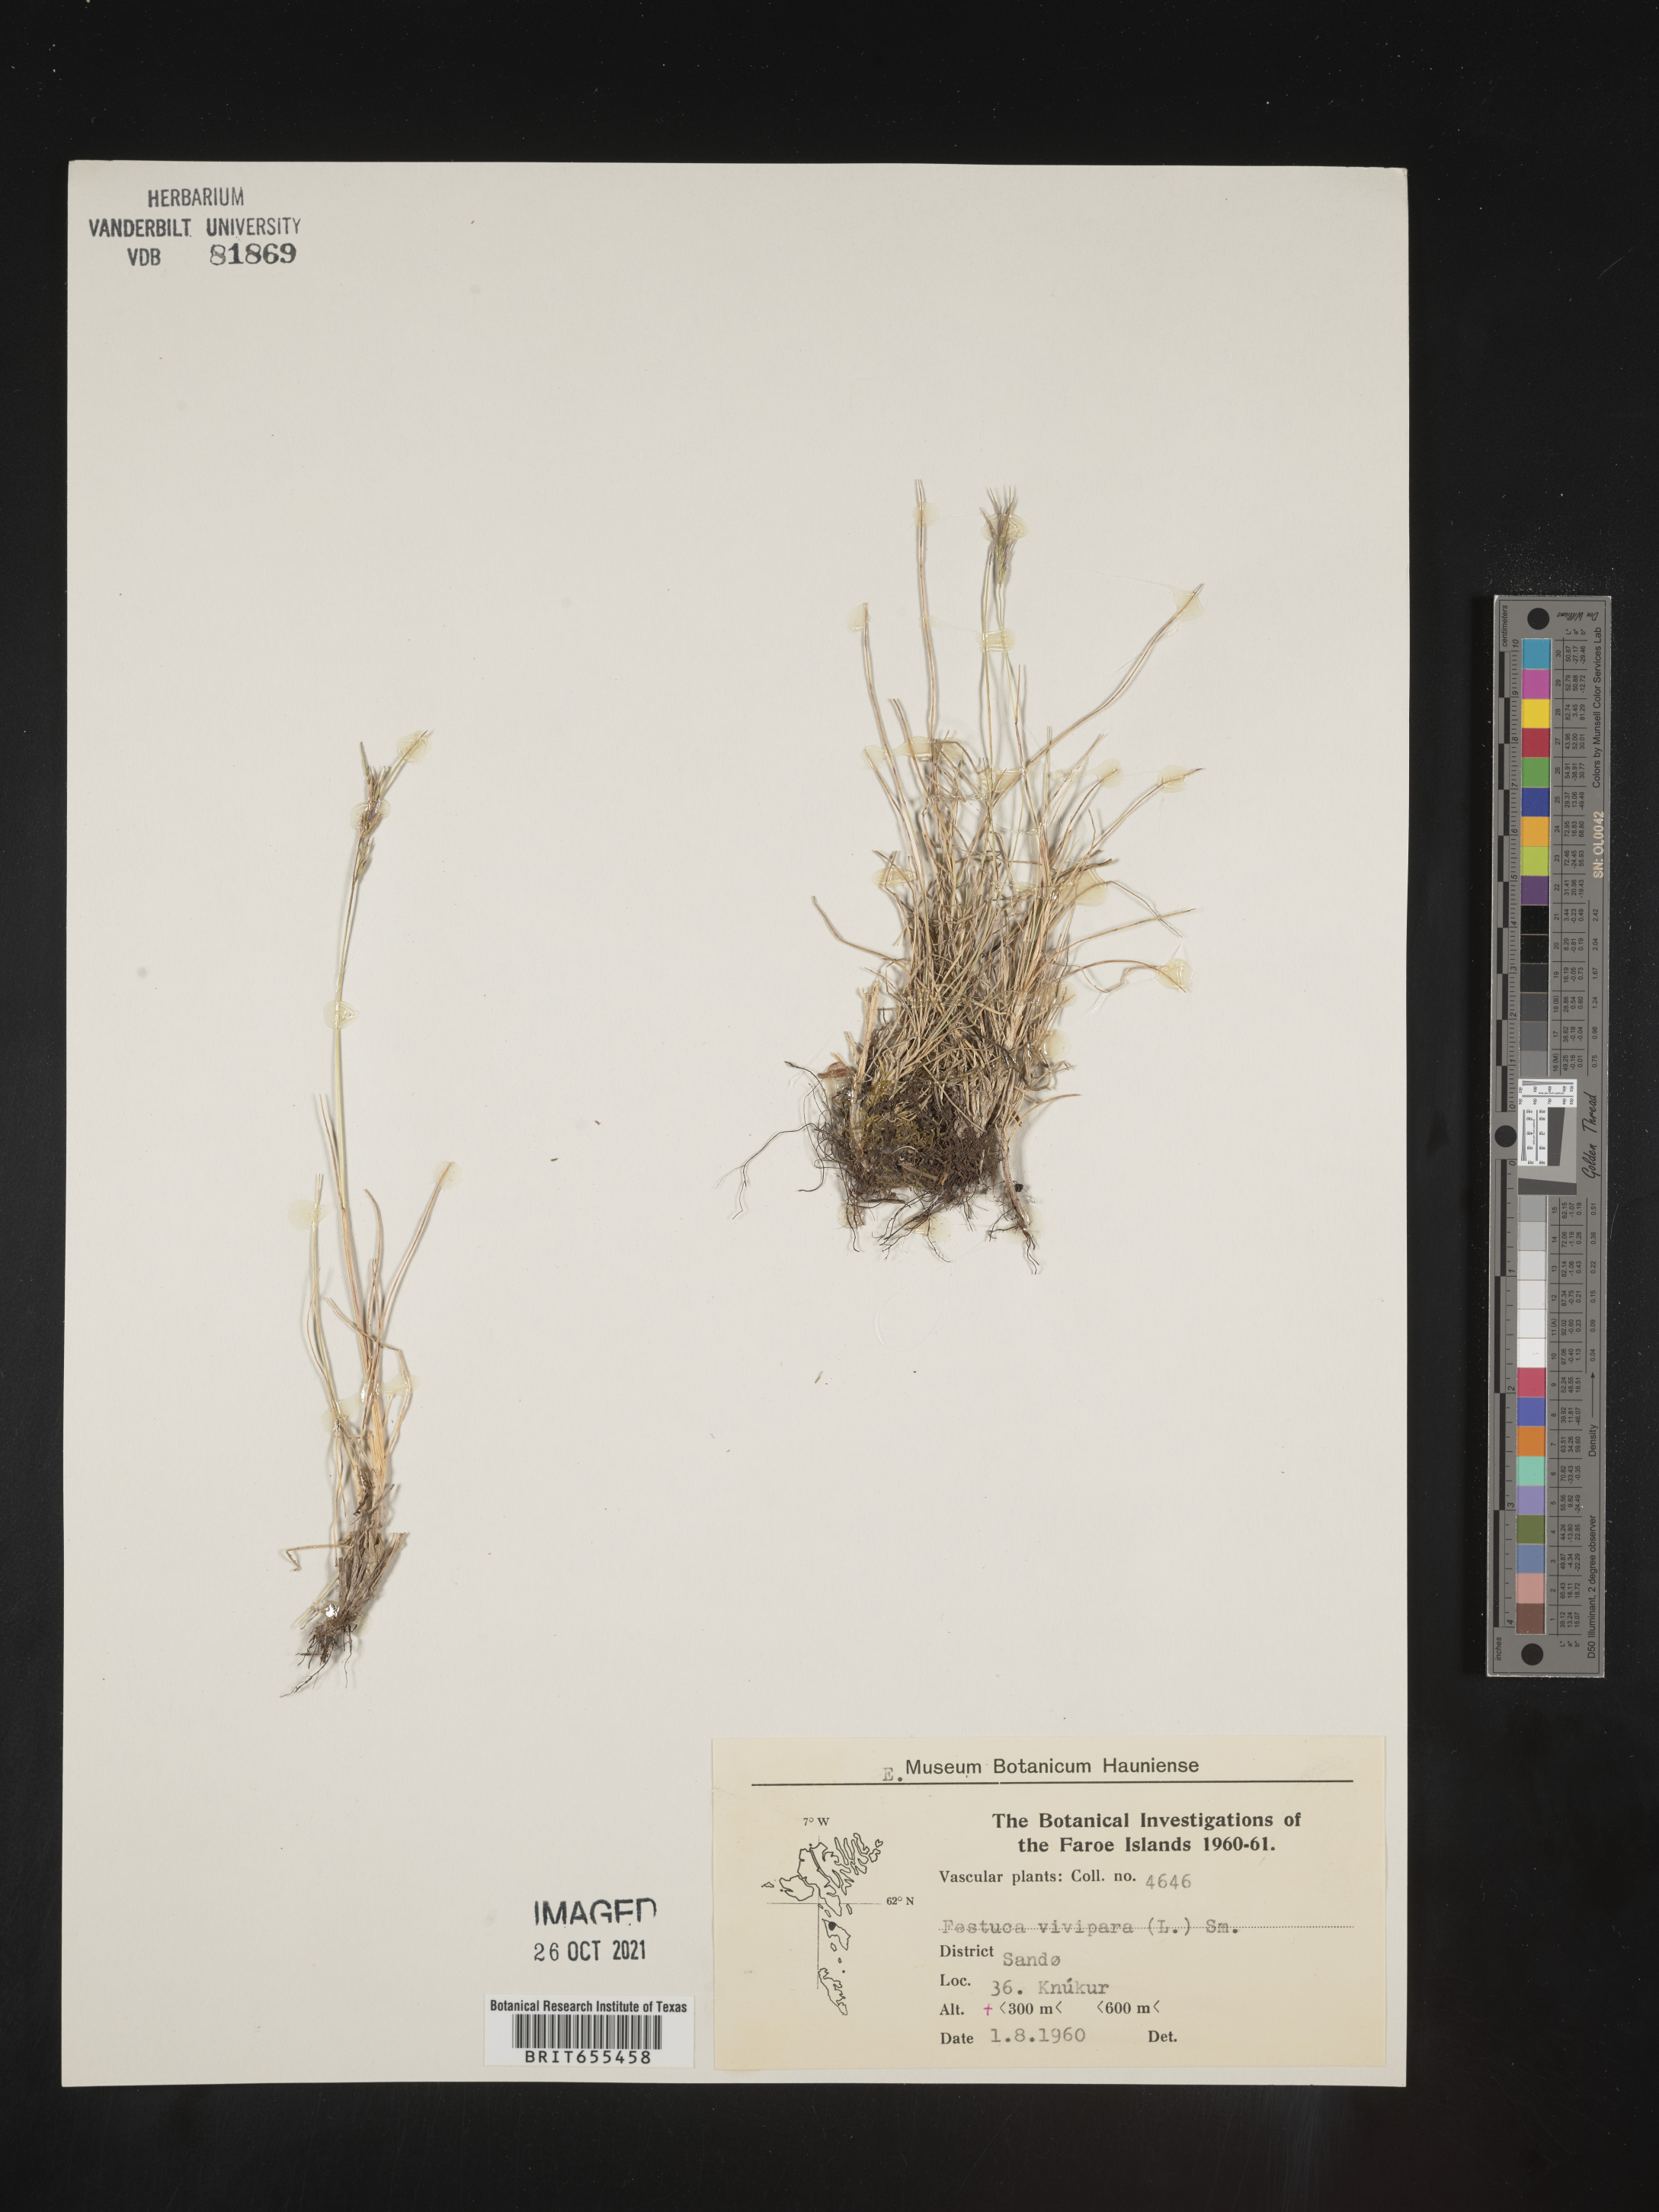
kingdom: Plantae
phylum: Tracheophyta
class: Liliopsida
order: Poales
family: Poaceae
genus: Festuca
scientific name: Festuca
